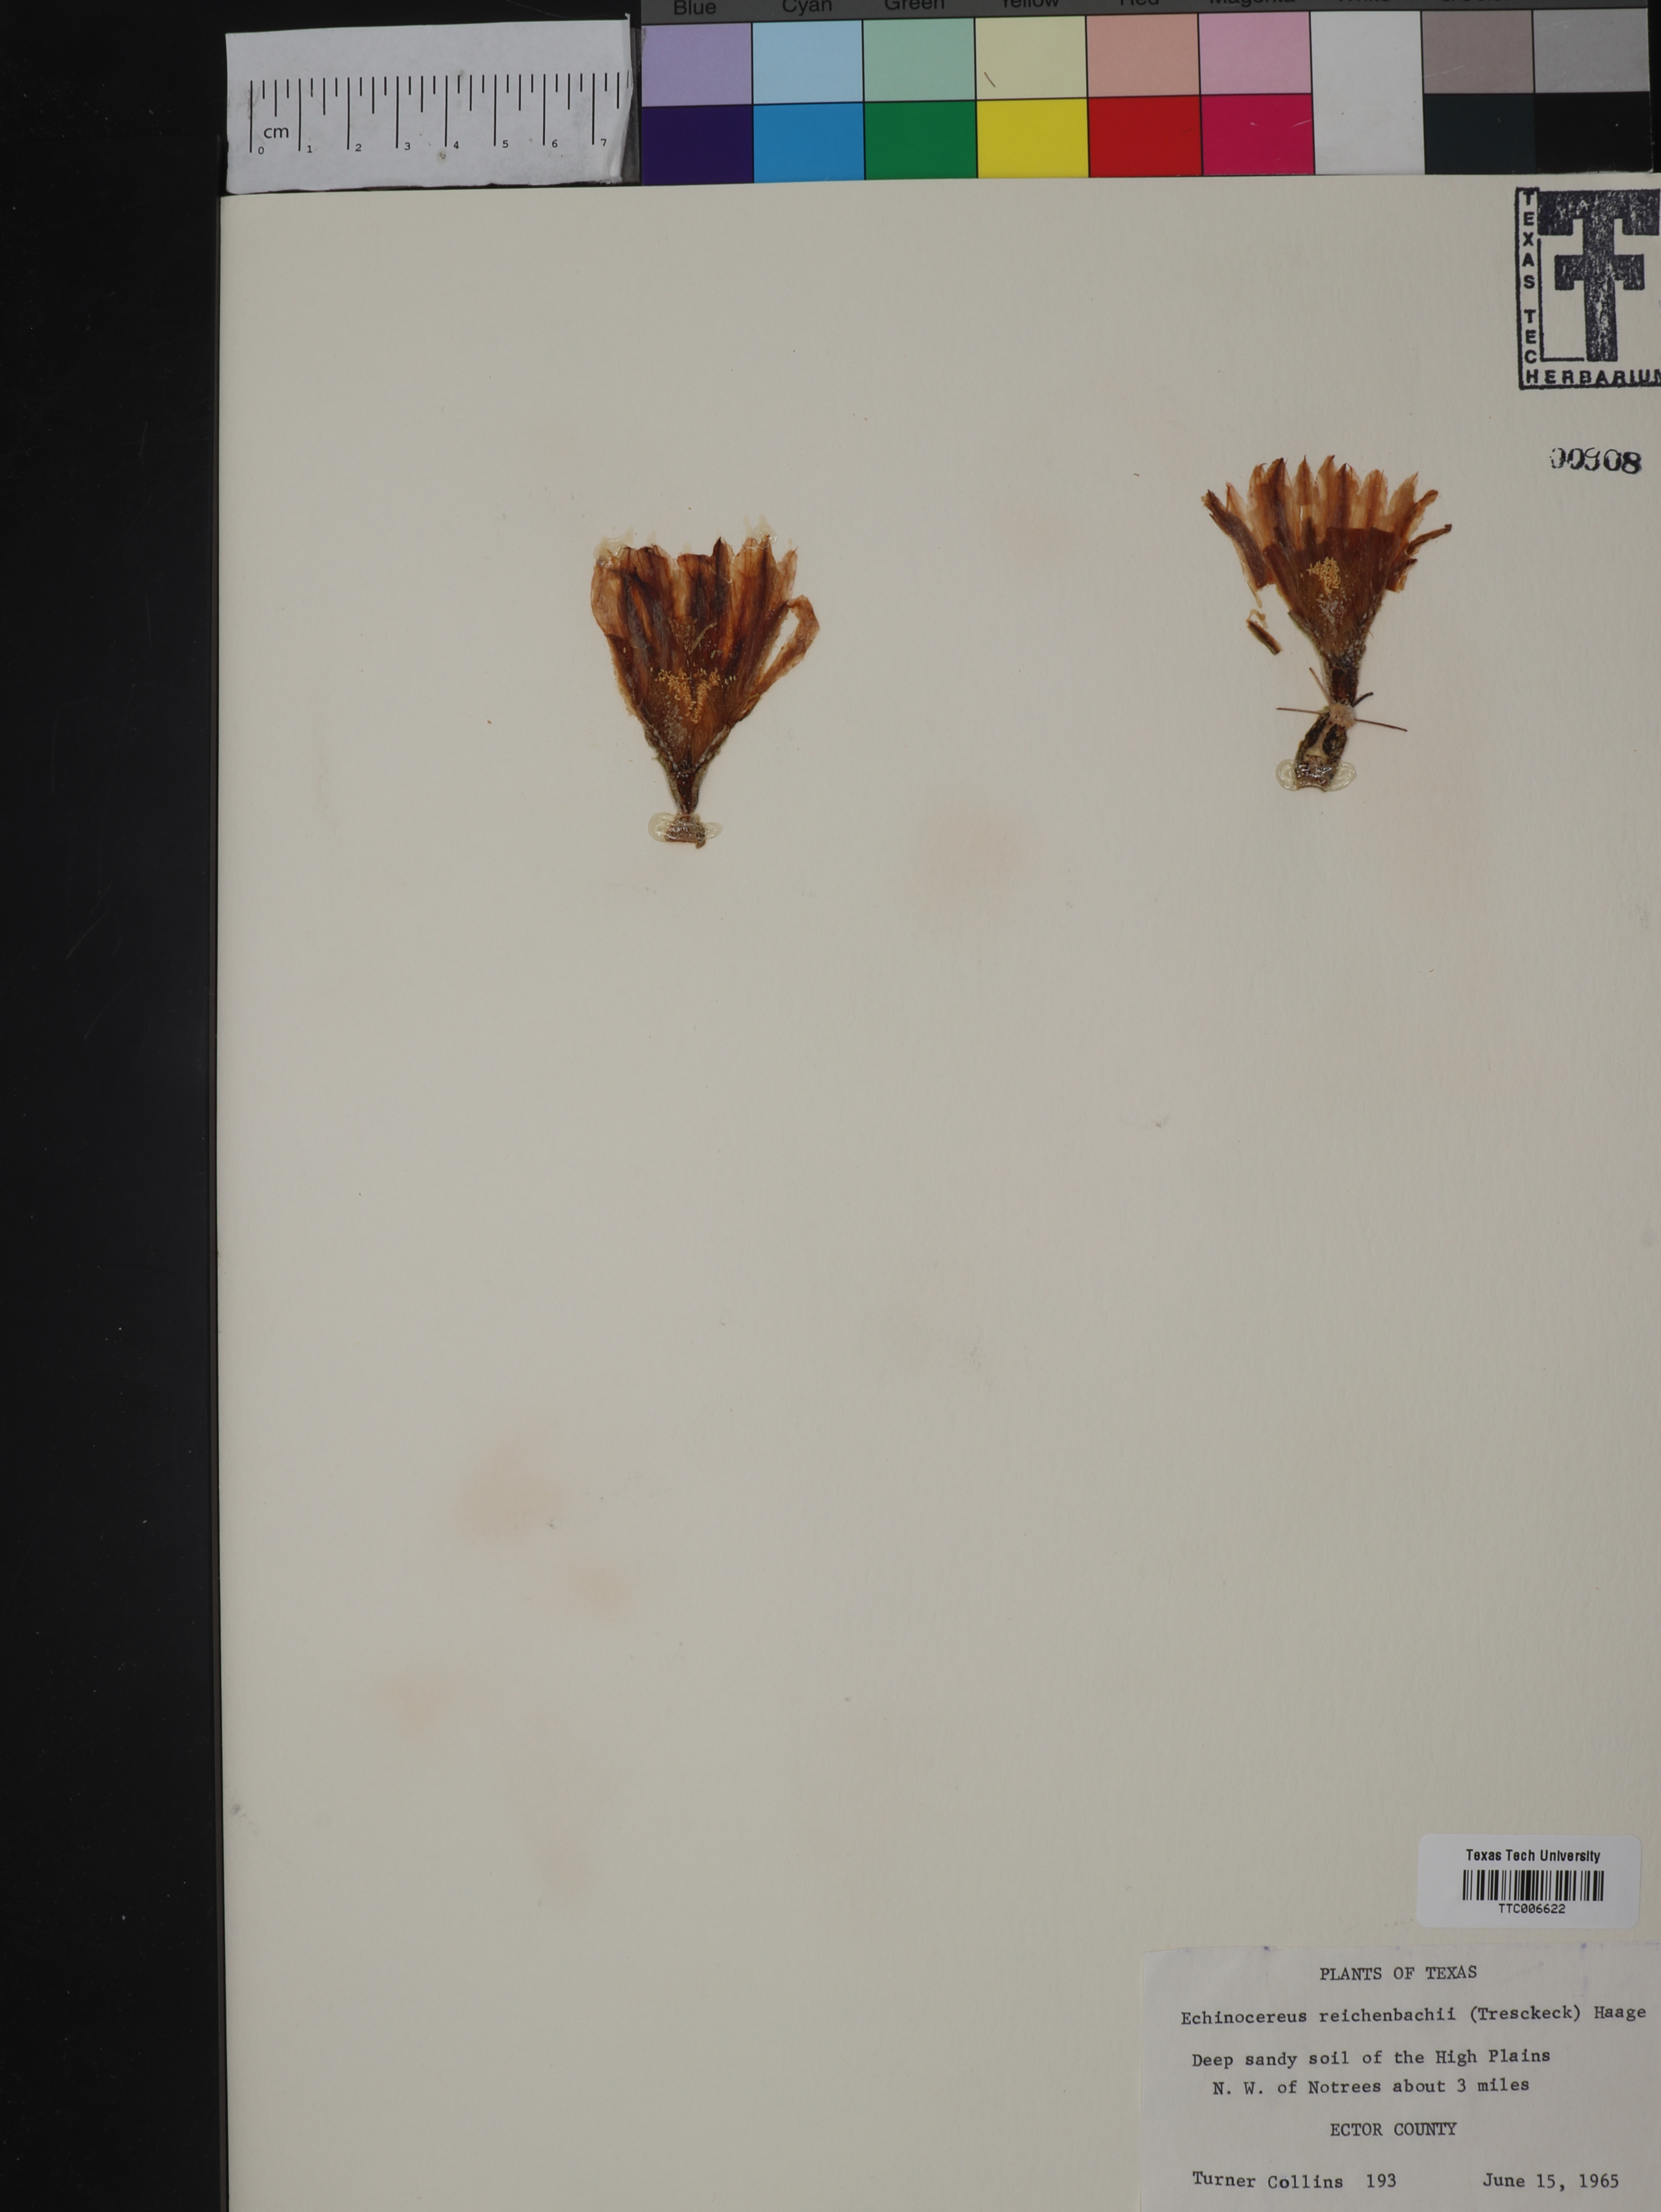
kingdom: Plantae
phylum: Tracheophyta
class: Magnoliopsida
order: Caryophyllales
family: Cactaceae
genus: Echinocereus
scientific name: Echinocereus reichenbachii
